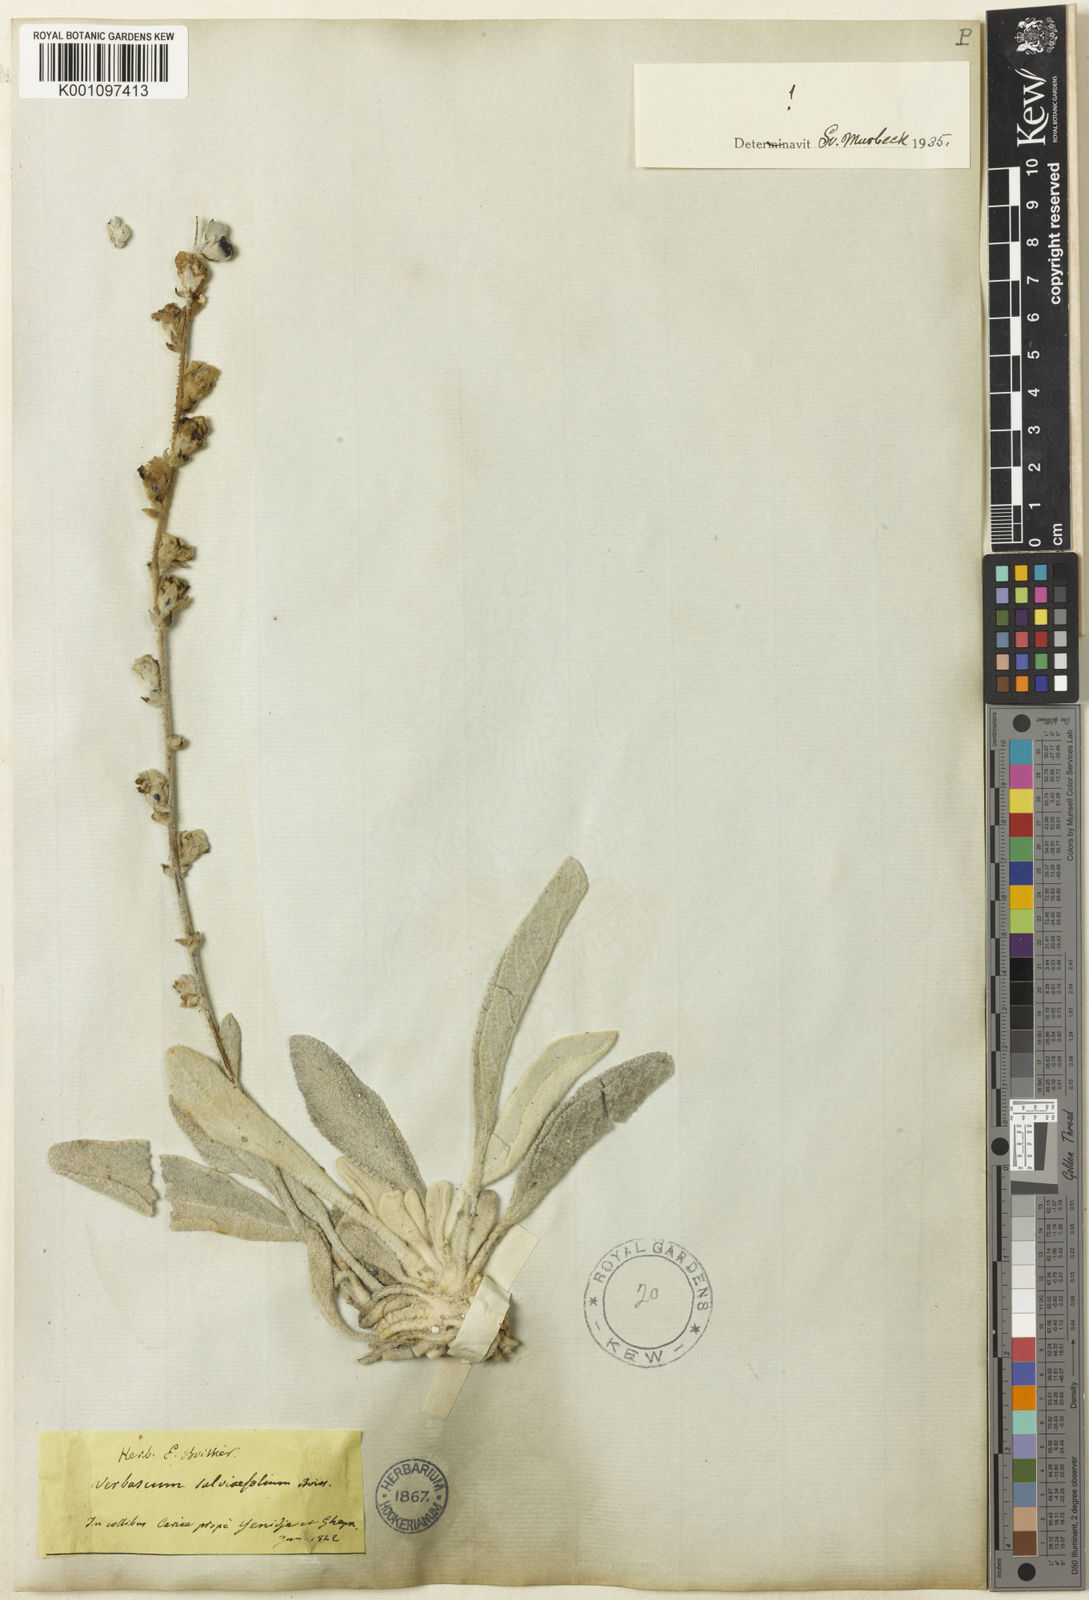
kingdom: Plantae
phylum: Tracheophyta
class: Magnoliopsida
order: Lamiales
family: Scrophulariaceae
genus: Verbascum
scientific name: Verbascum salviifolium
